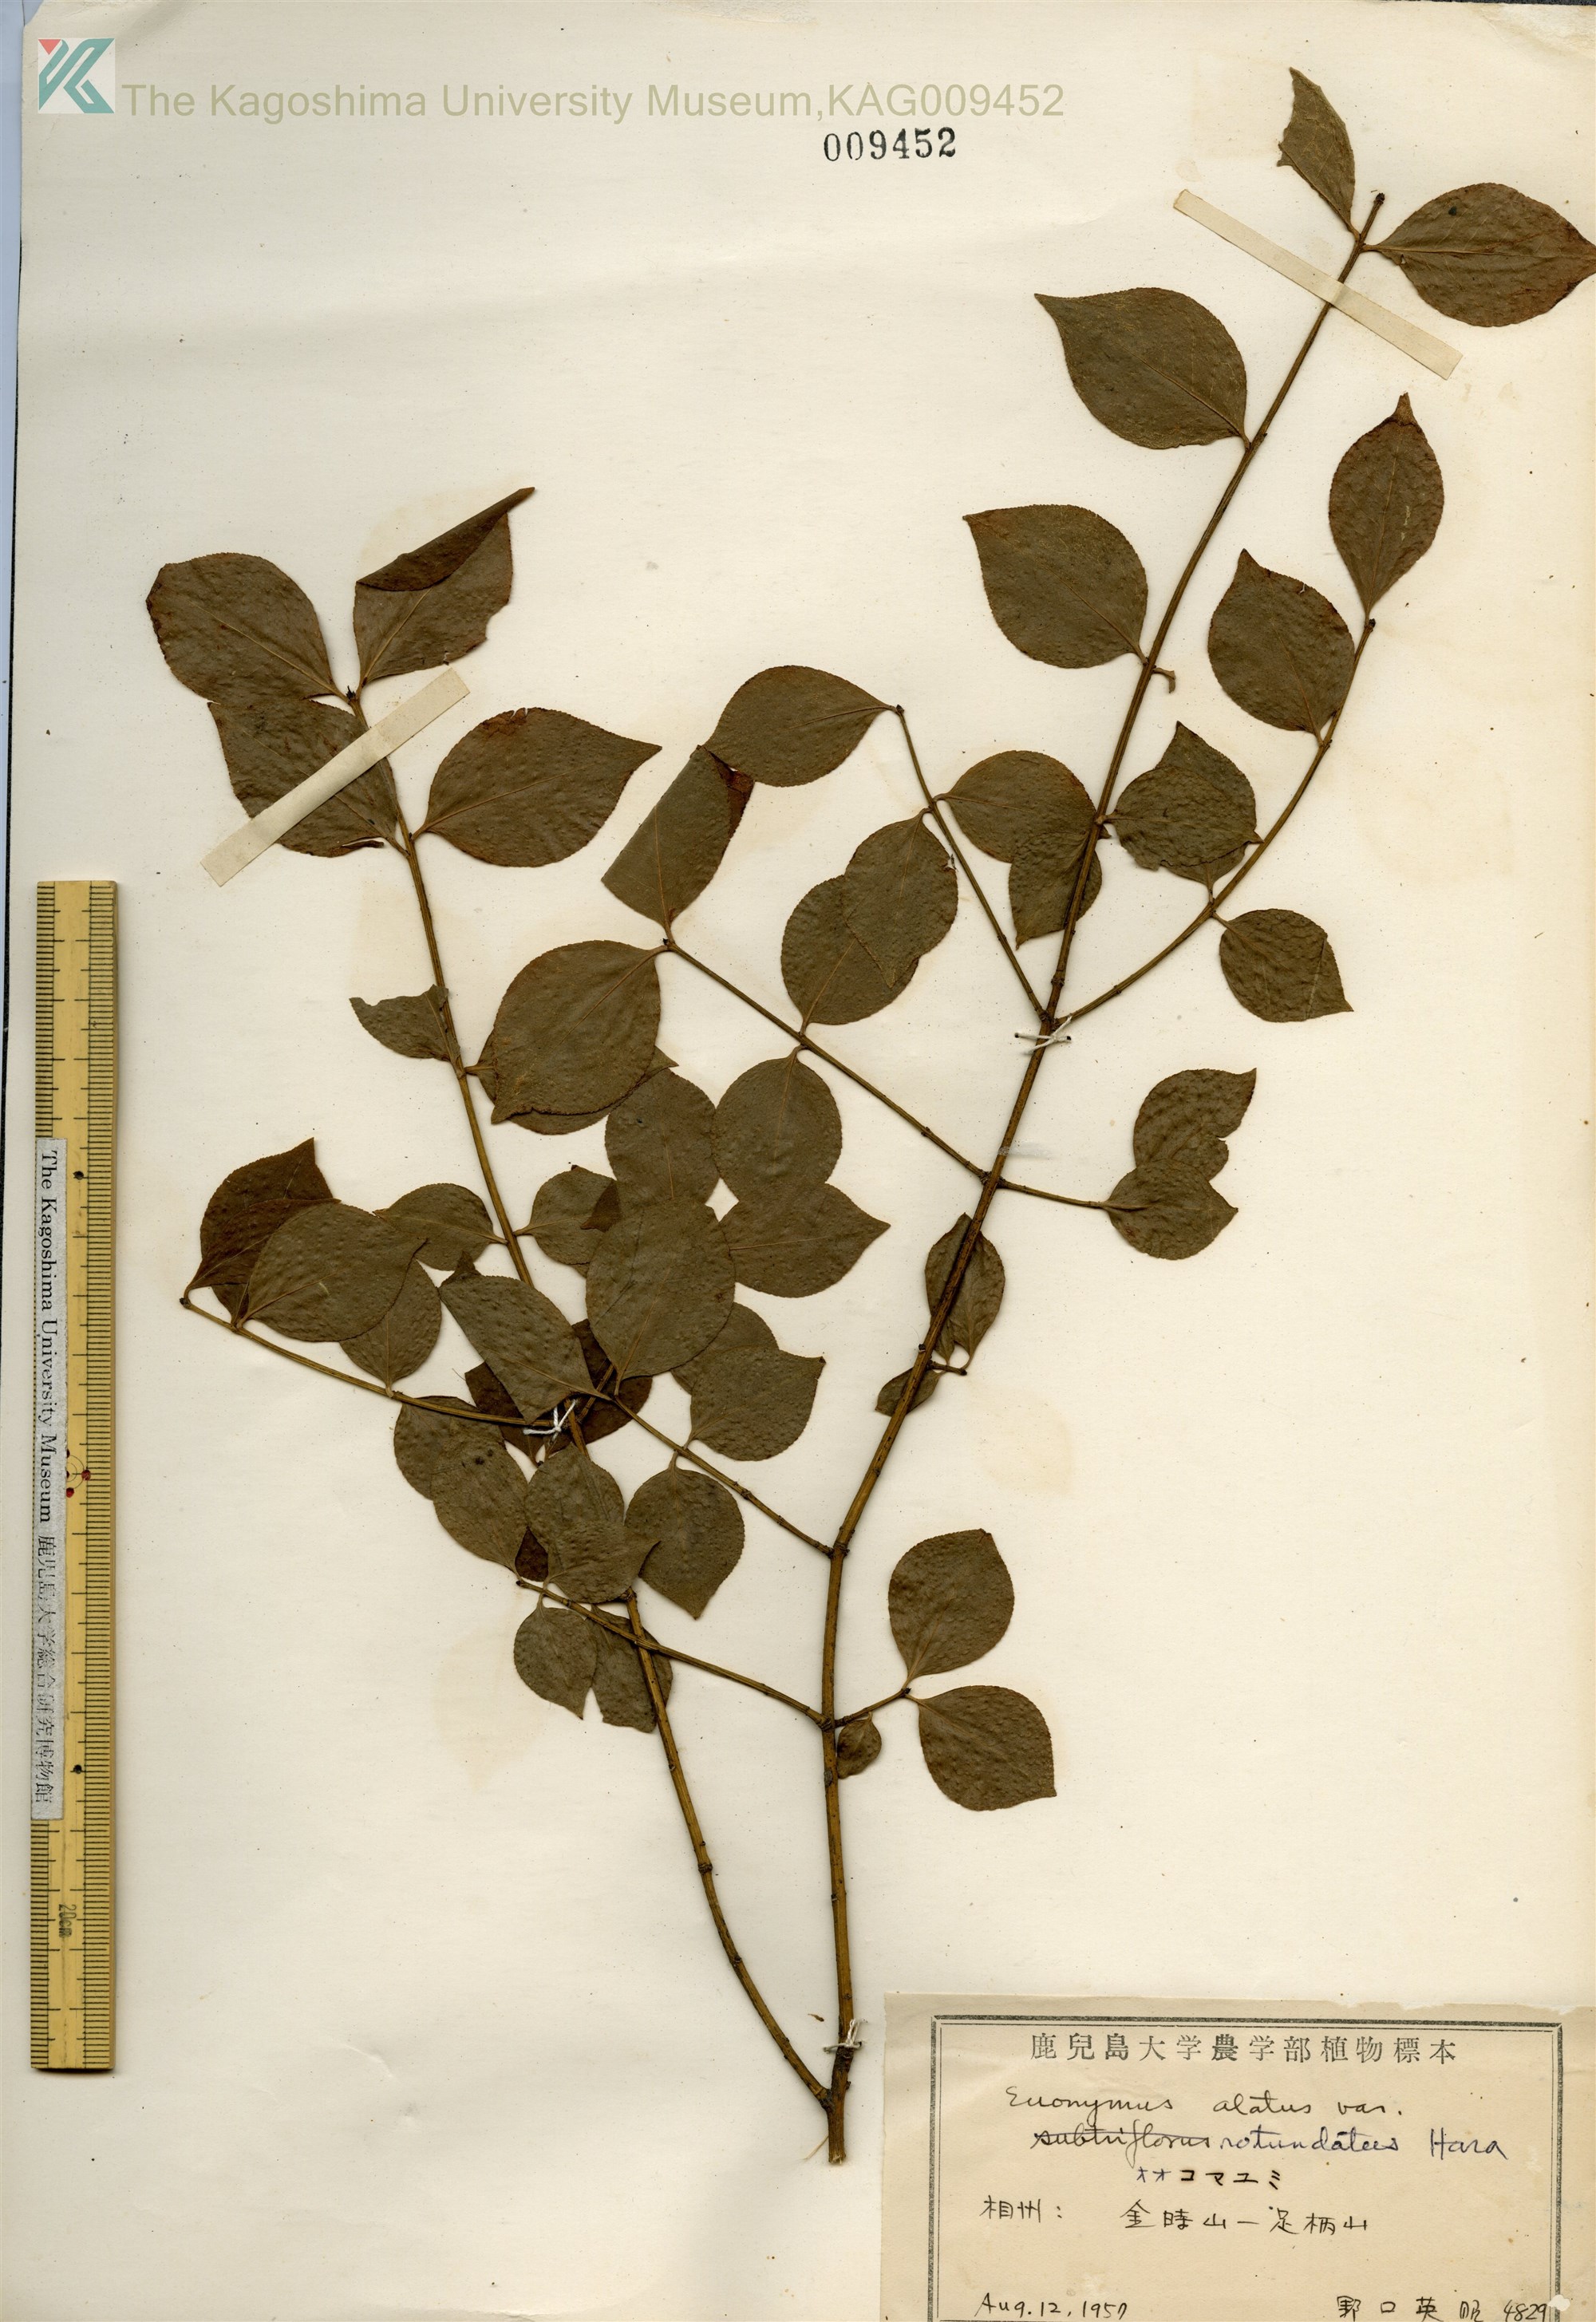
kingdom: Plantae
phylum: Tracheophyta
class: Magnoliopsida
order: Celastrales
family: Celastraceae
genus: Euonymus
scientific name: Euonymus alatus
